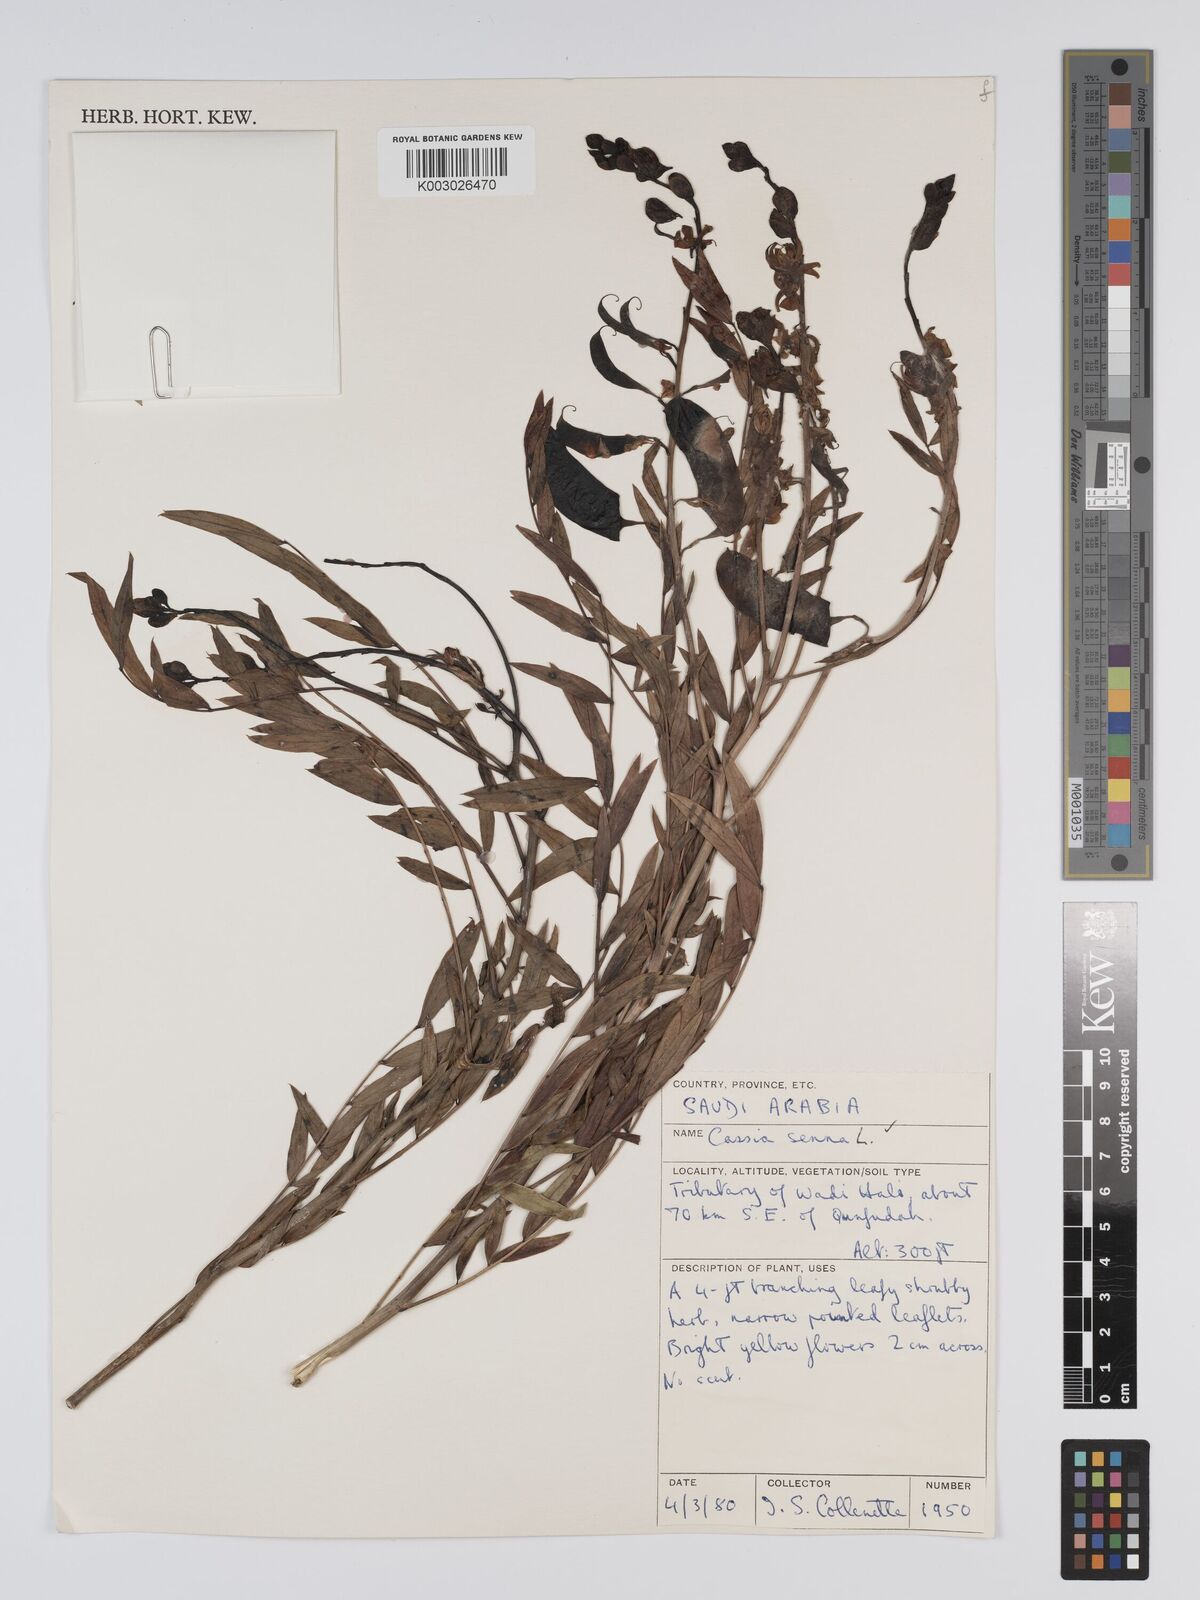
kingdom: Plantae
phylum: Tracheophyta
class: Magnoliopsida
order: Fabales
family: Fabaceae
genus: Senna
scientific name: Senna alexandrina
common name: True senna
